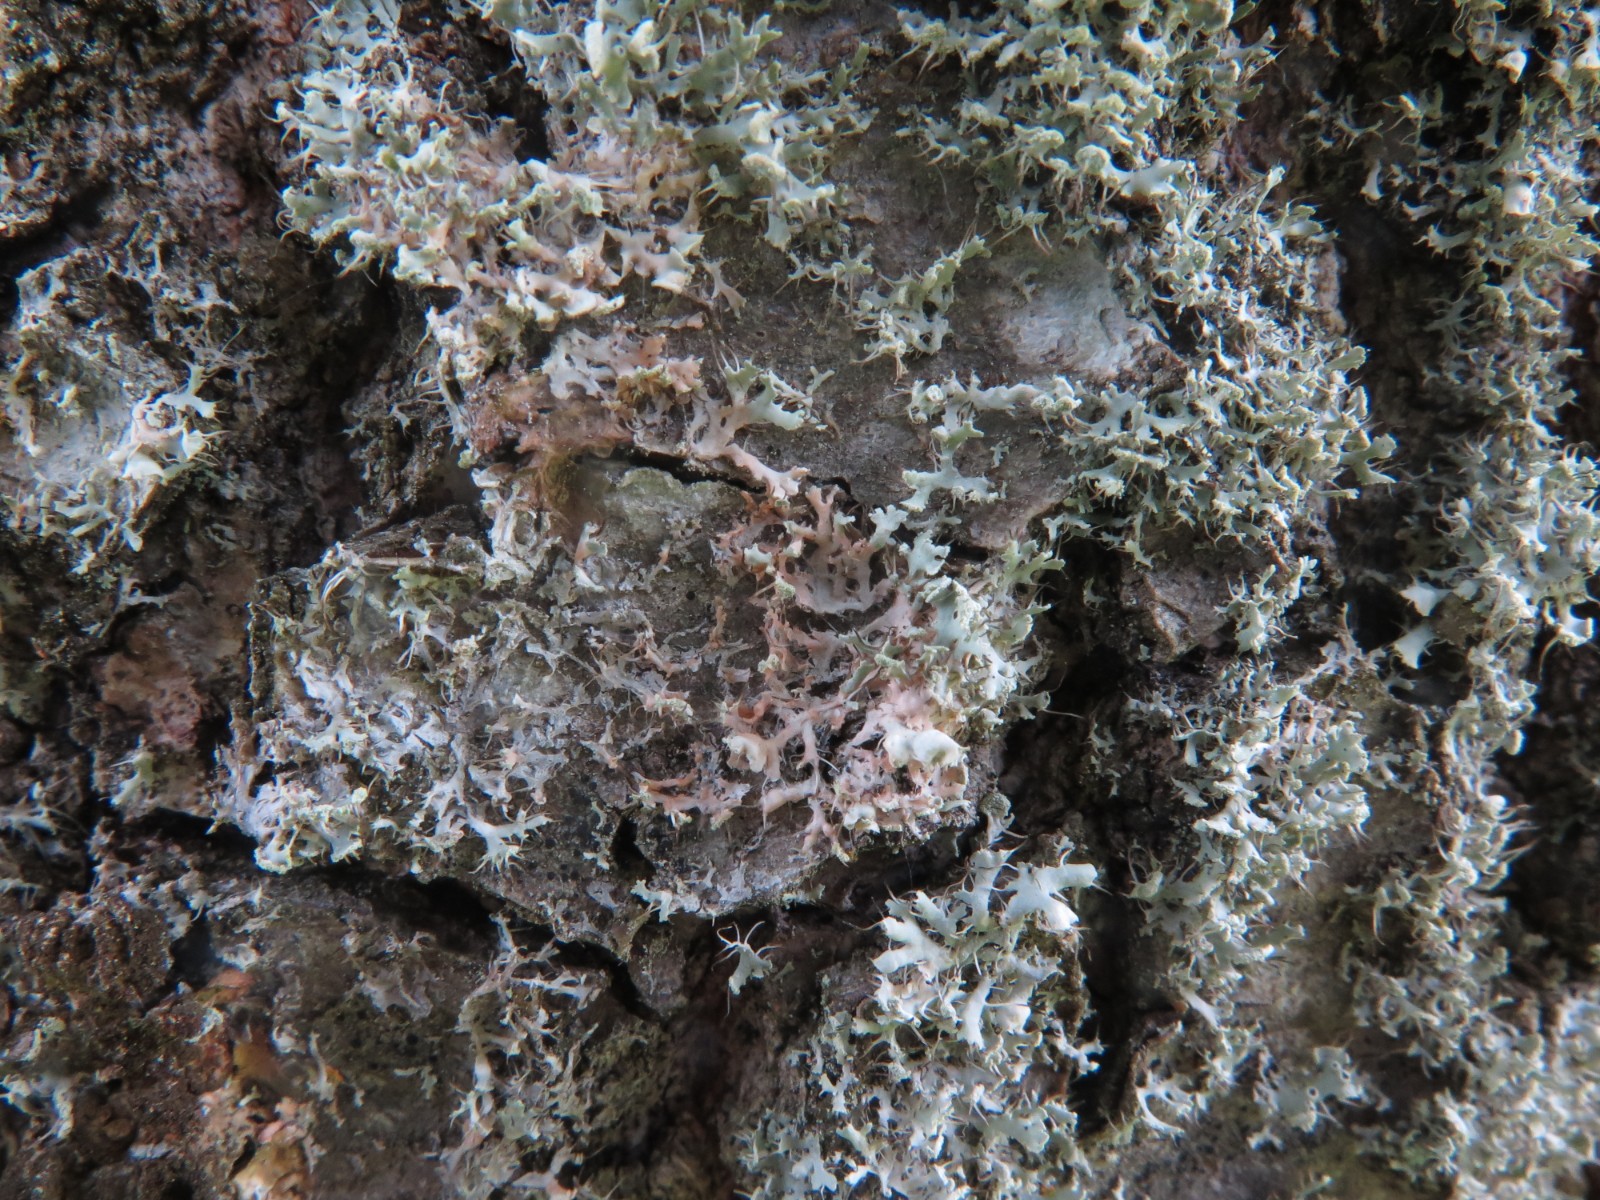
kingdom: Fungi
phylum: Basidiomycota
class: Agaricomycetes
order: Corticiales
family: Corticiaceae
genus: Erythricium
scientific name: Erythricium aurantiacum
